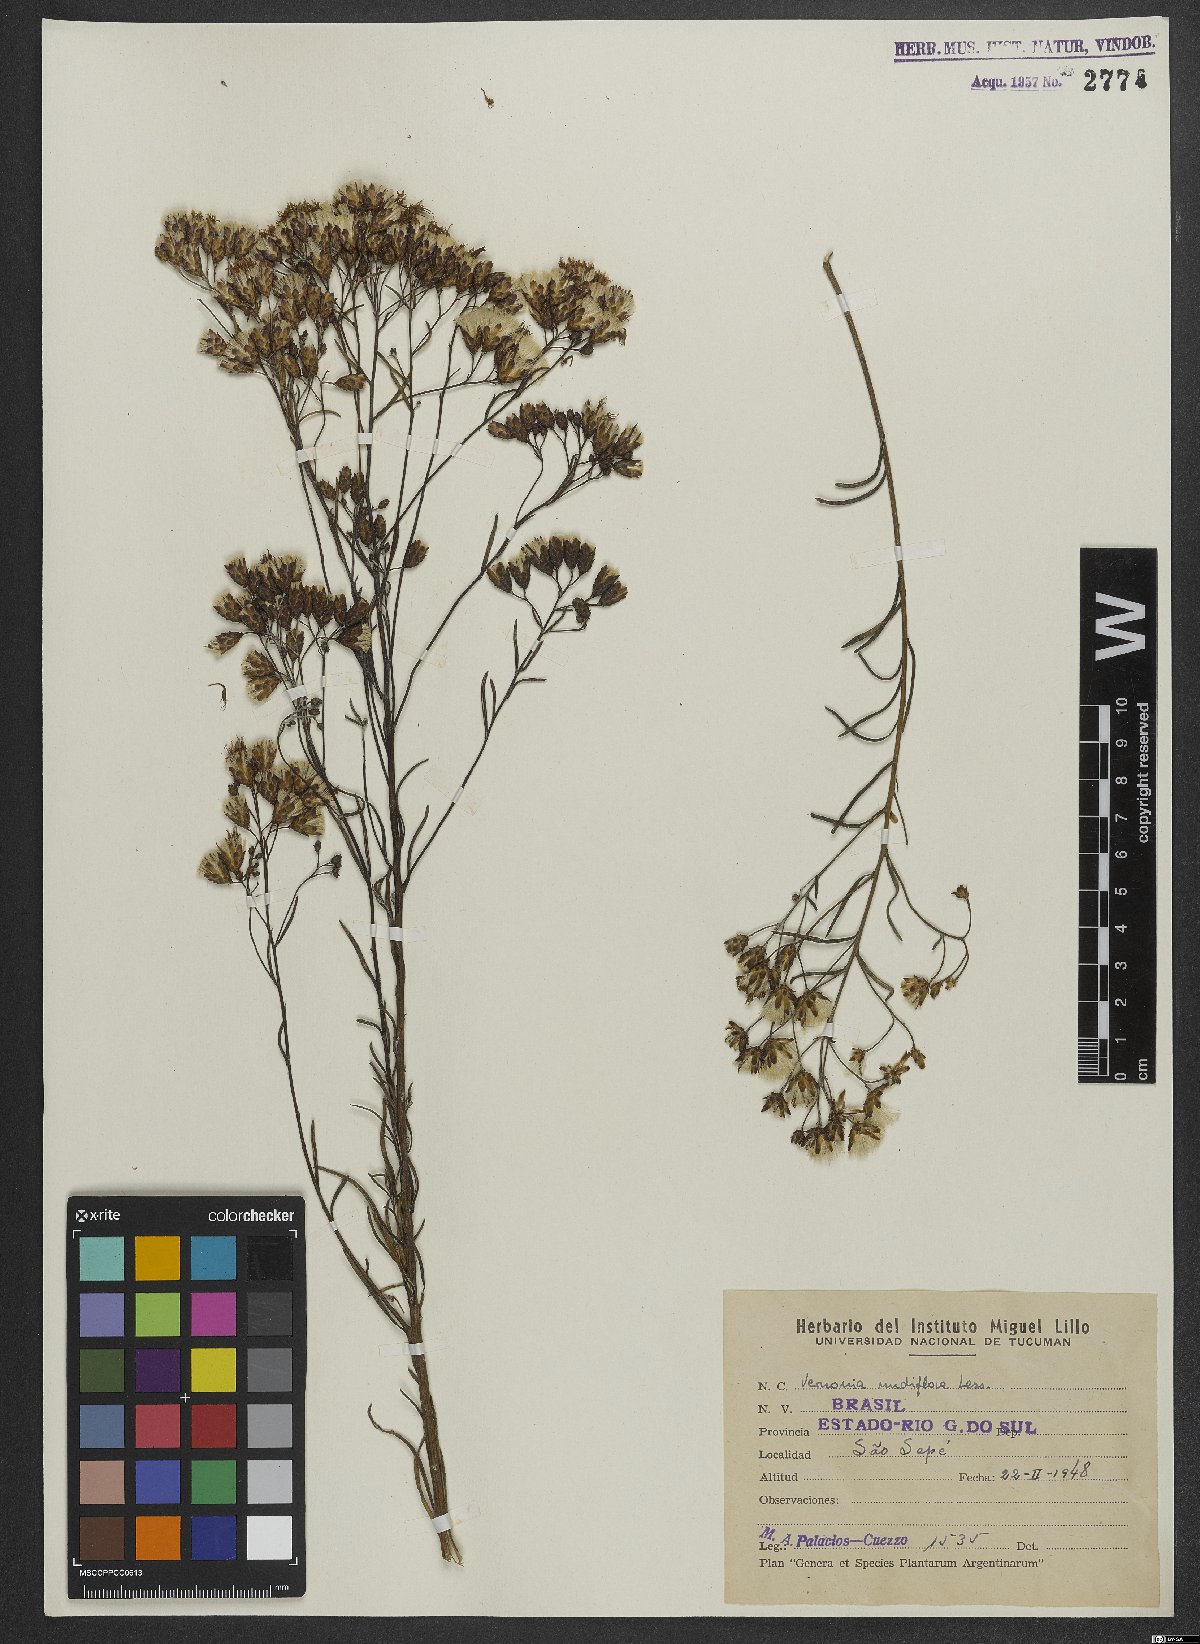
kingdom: Plantae
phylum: Tracheophyta
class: Magnoliopsida
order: Asterales
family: Asteraceae
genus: Vernonanthura
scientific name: Vernonanthura nudiflora
